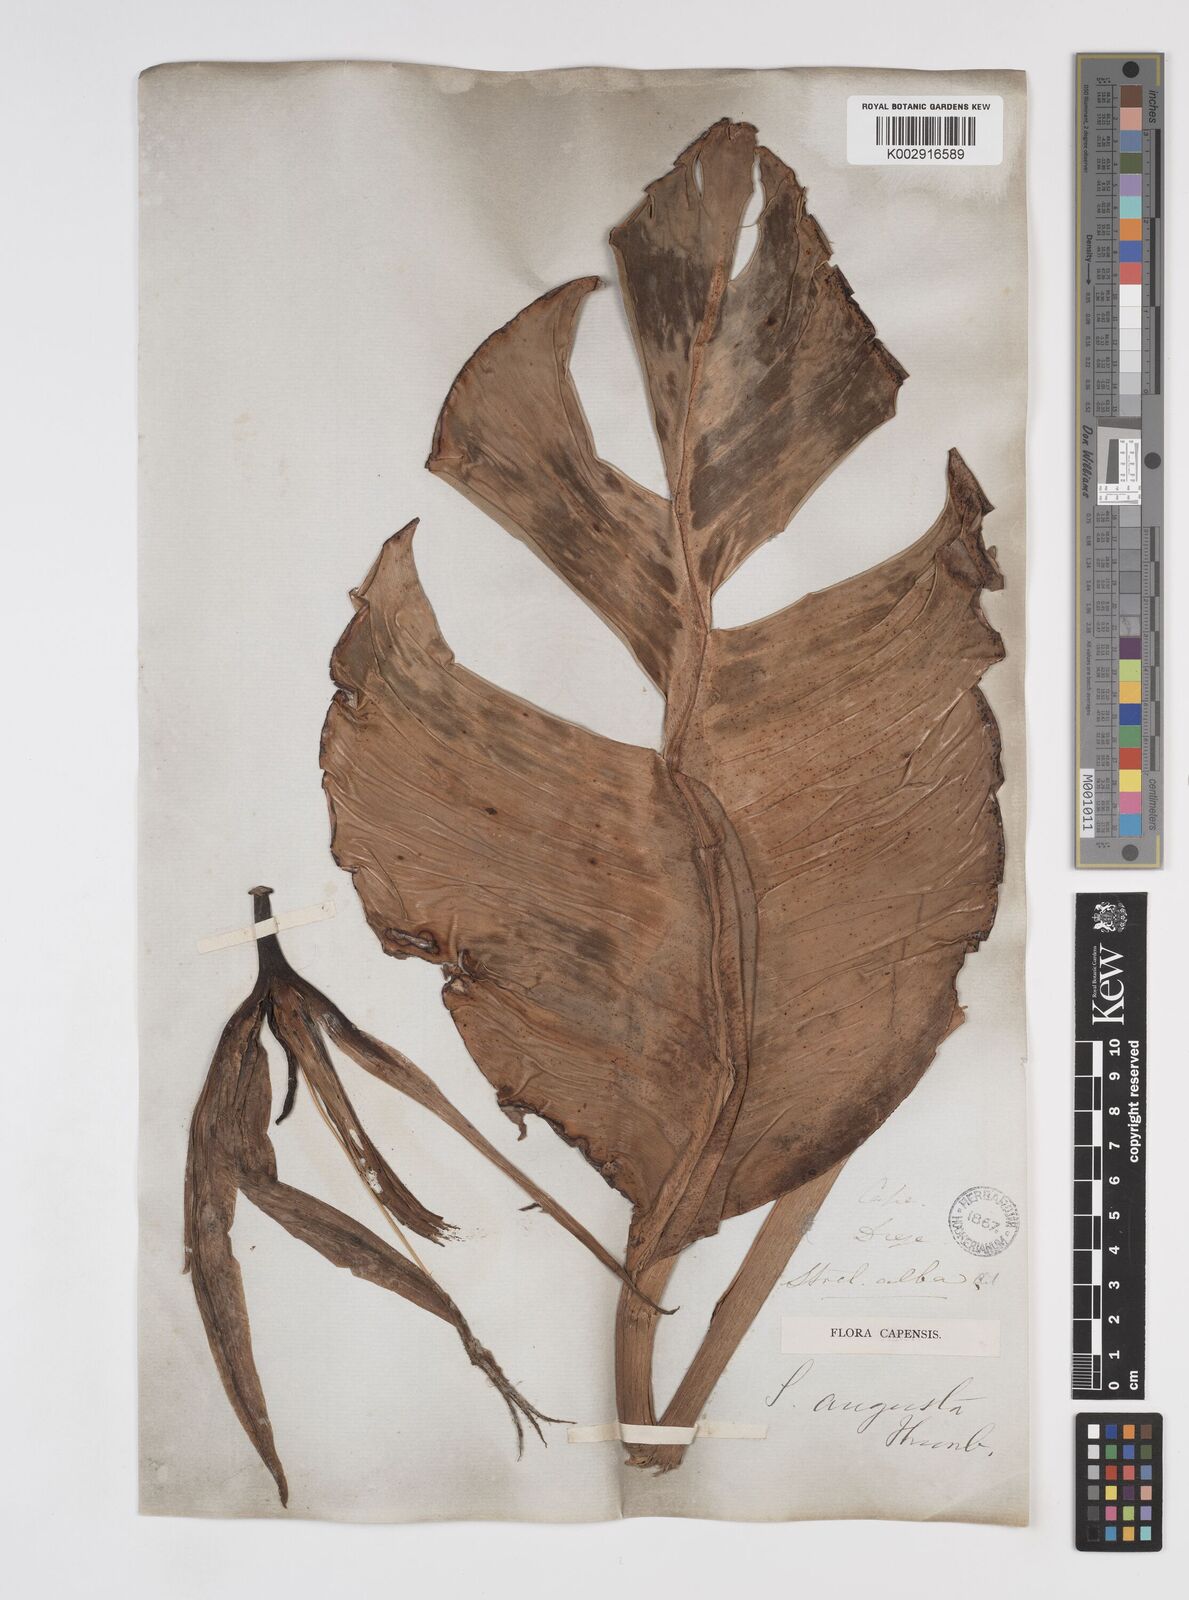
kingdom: Plantae
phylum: Tracheophyta
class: Liliopsida
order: Zingiberales
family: Strelitziaceae
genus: Strelitzia
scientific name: Strelitzia
